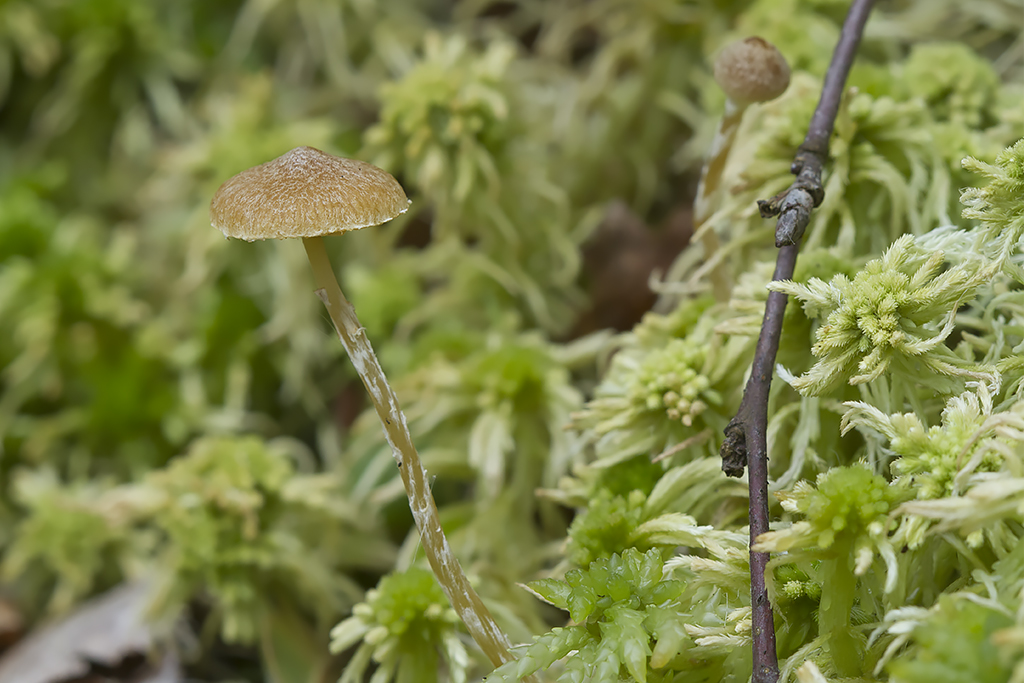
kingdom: Fungi
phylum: Basidiomycota
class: Agaricomycetes
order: Agaricales
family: Hymenogastraceae
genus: Galerina
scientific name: Galerina paludosa
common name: mose-hjelmhat
